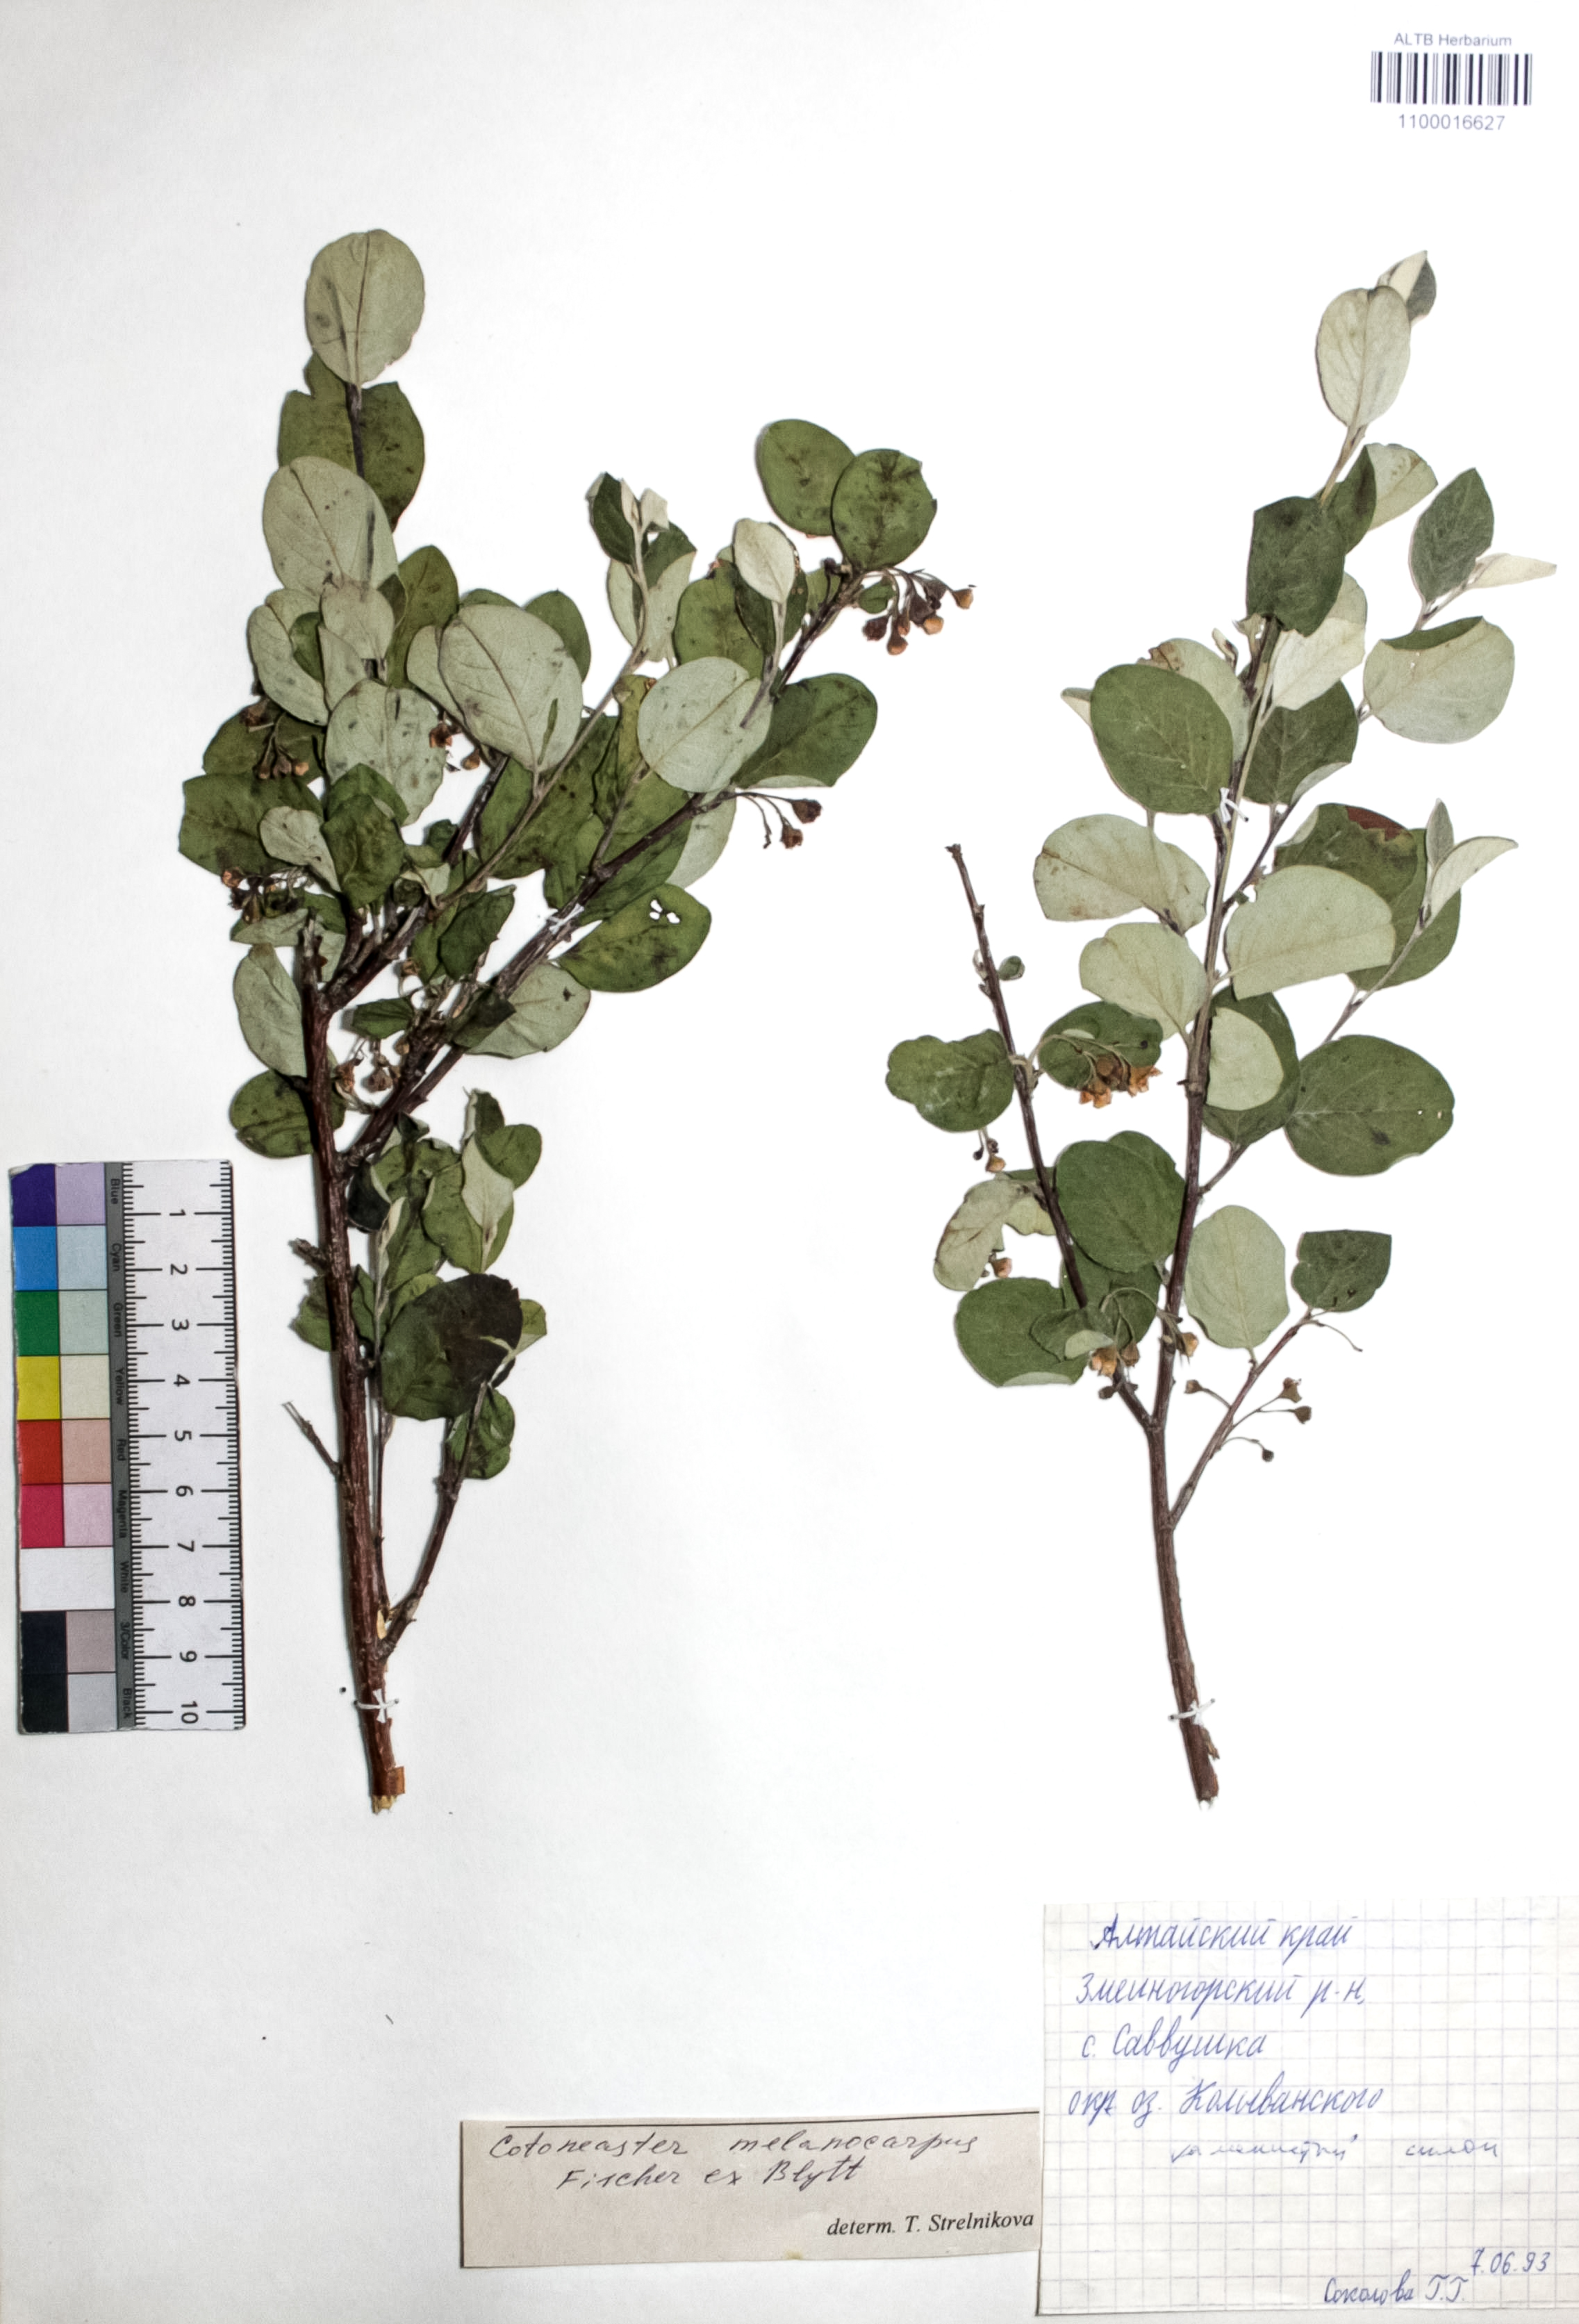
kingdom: Plantae
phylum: Tracheophyta
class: Magnoliopsida
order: Rosales
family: Rosaceae
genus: Cotoneaster
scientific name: Cotoneaster niger
